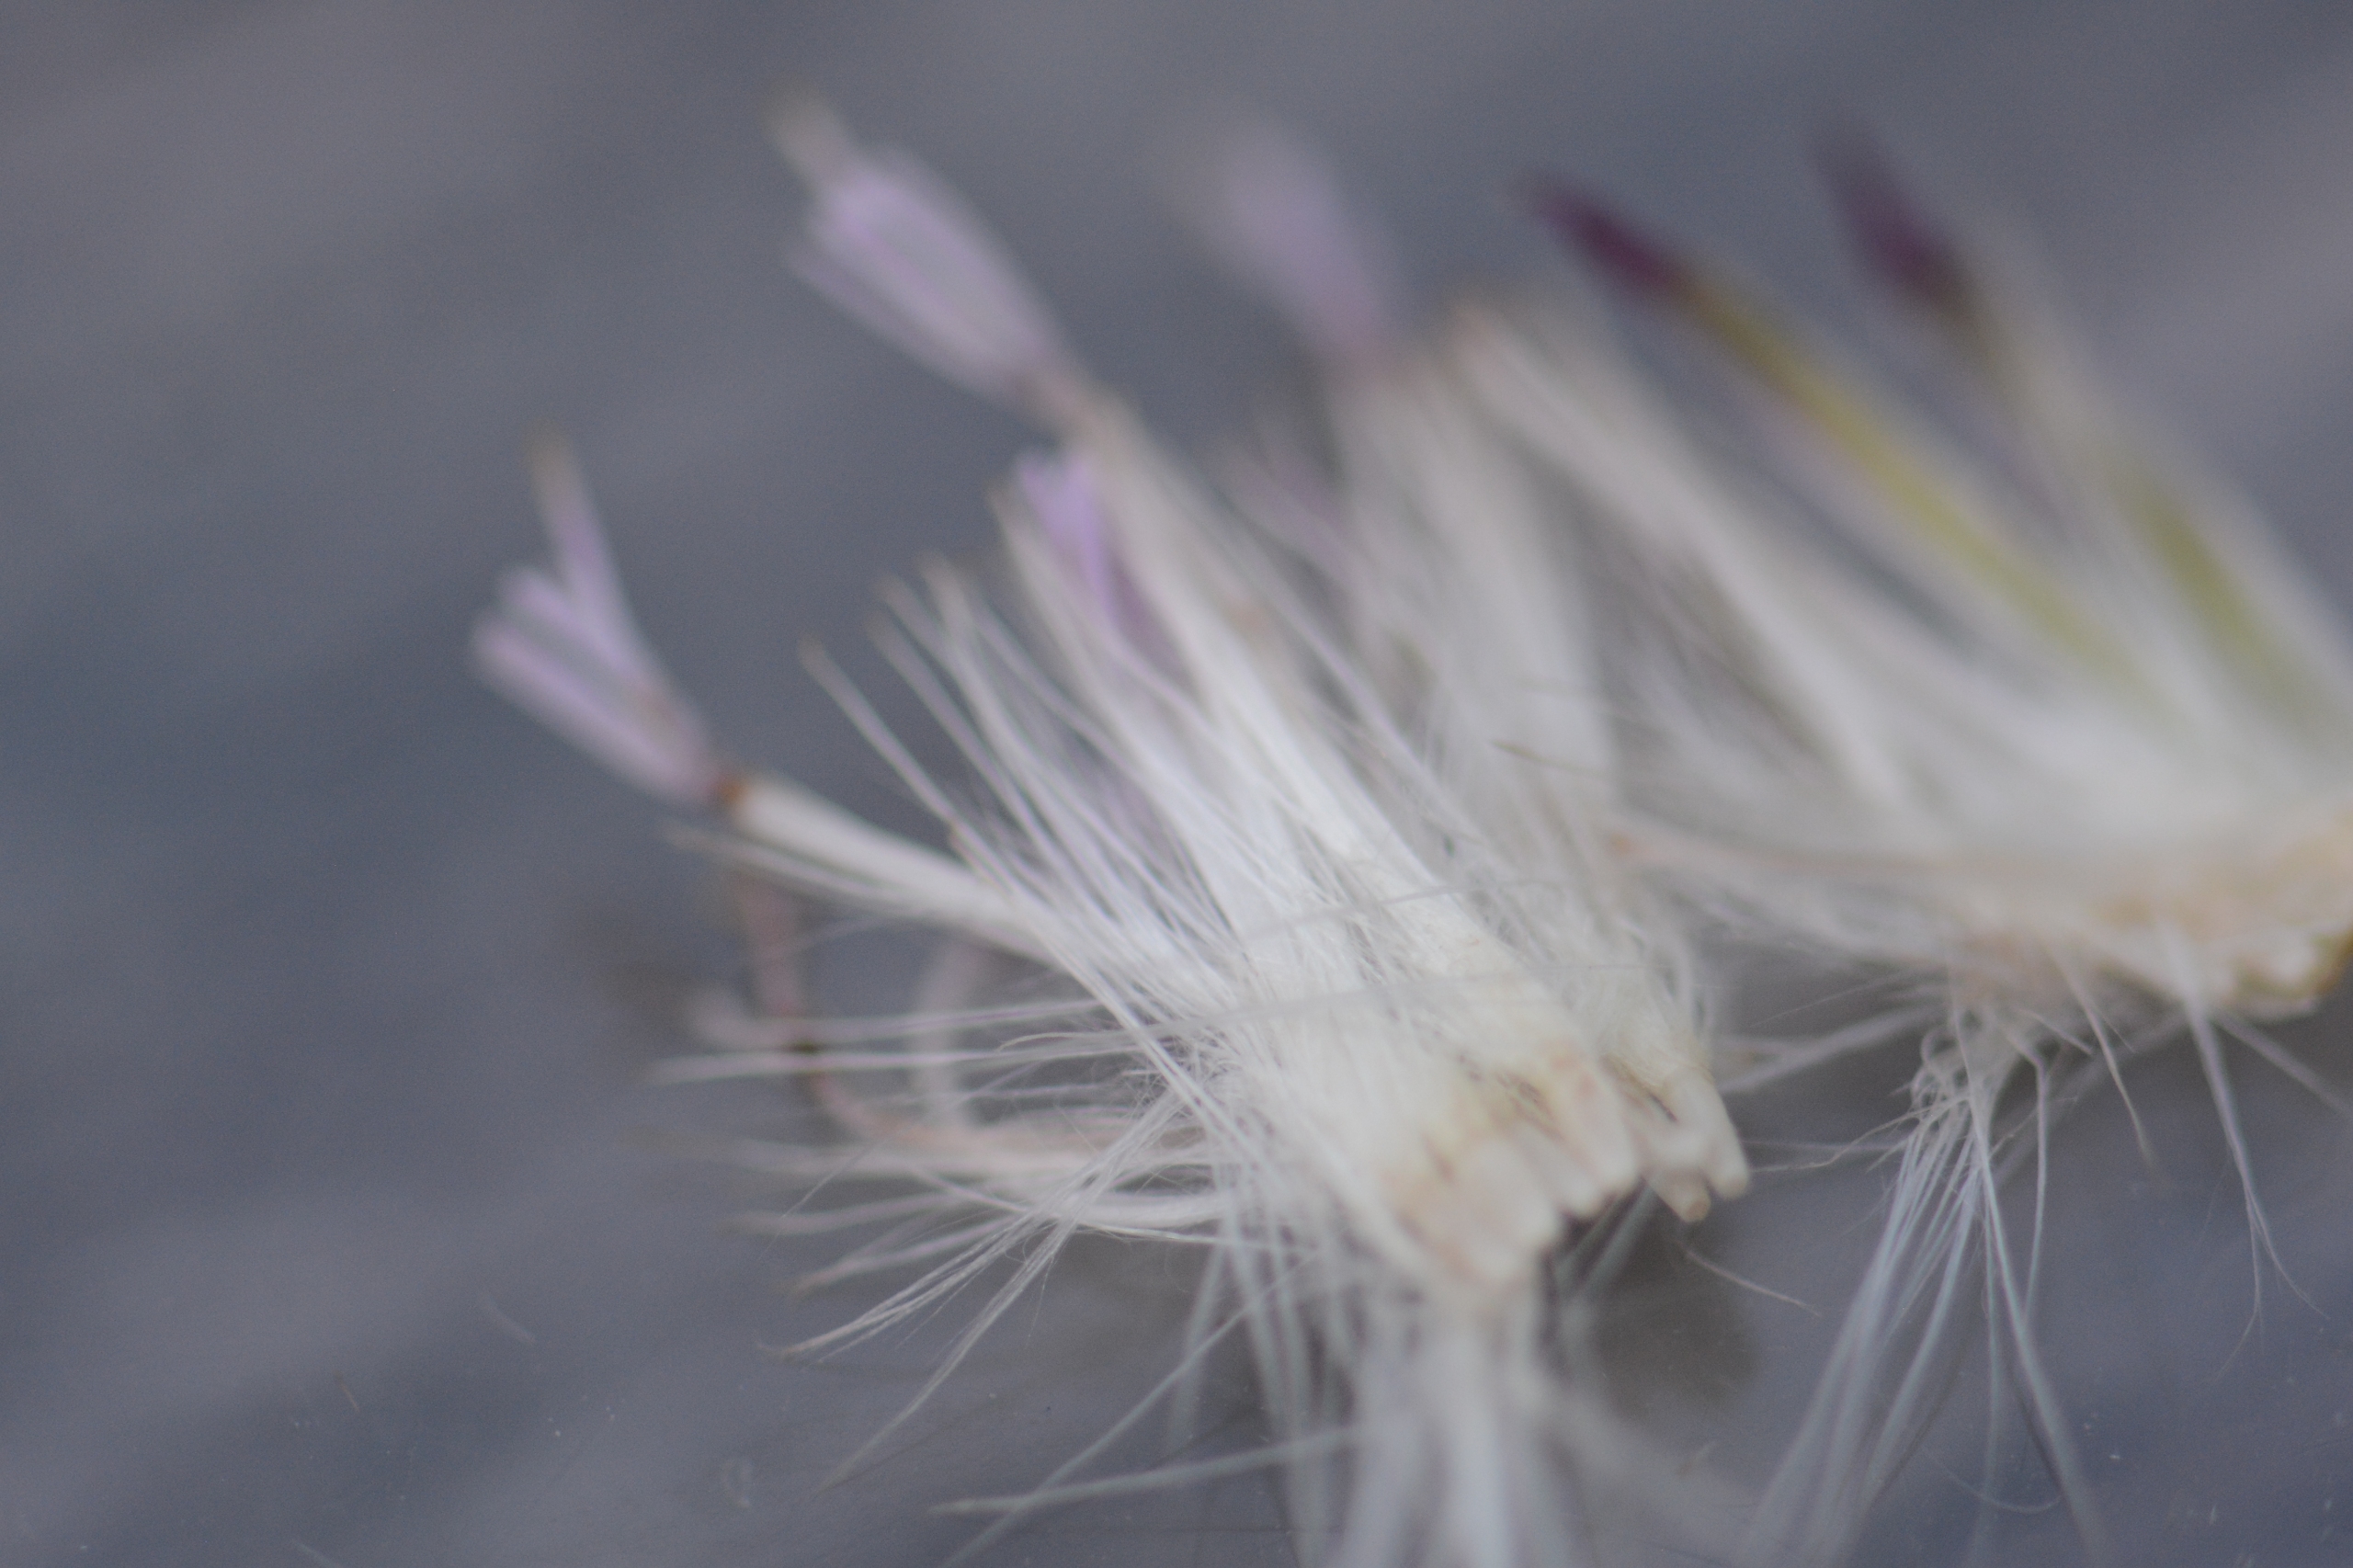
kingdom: Plantae
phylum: Tracheophyta
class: Magnoliopsida
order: Asterales
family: Asteraceae
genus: Cirsium
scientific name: Cirsium arvense
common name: Ager-tidsel
